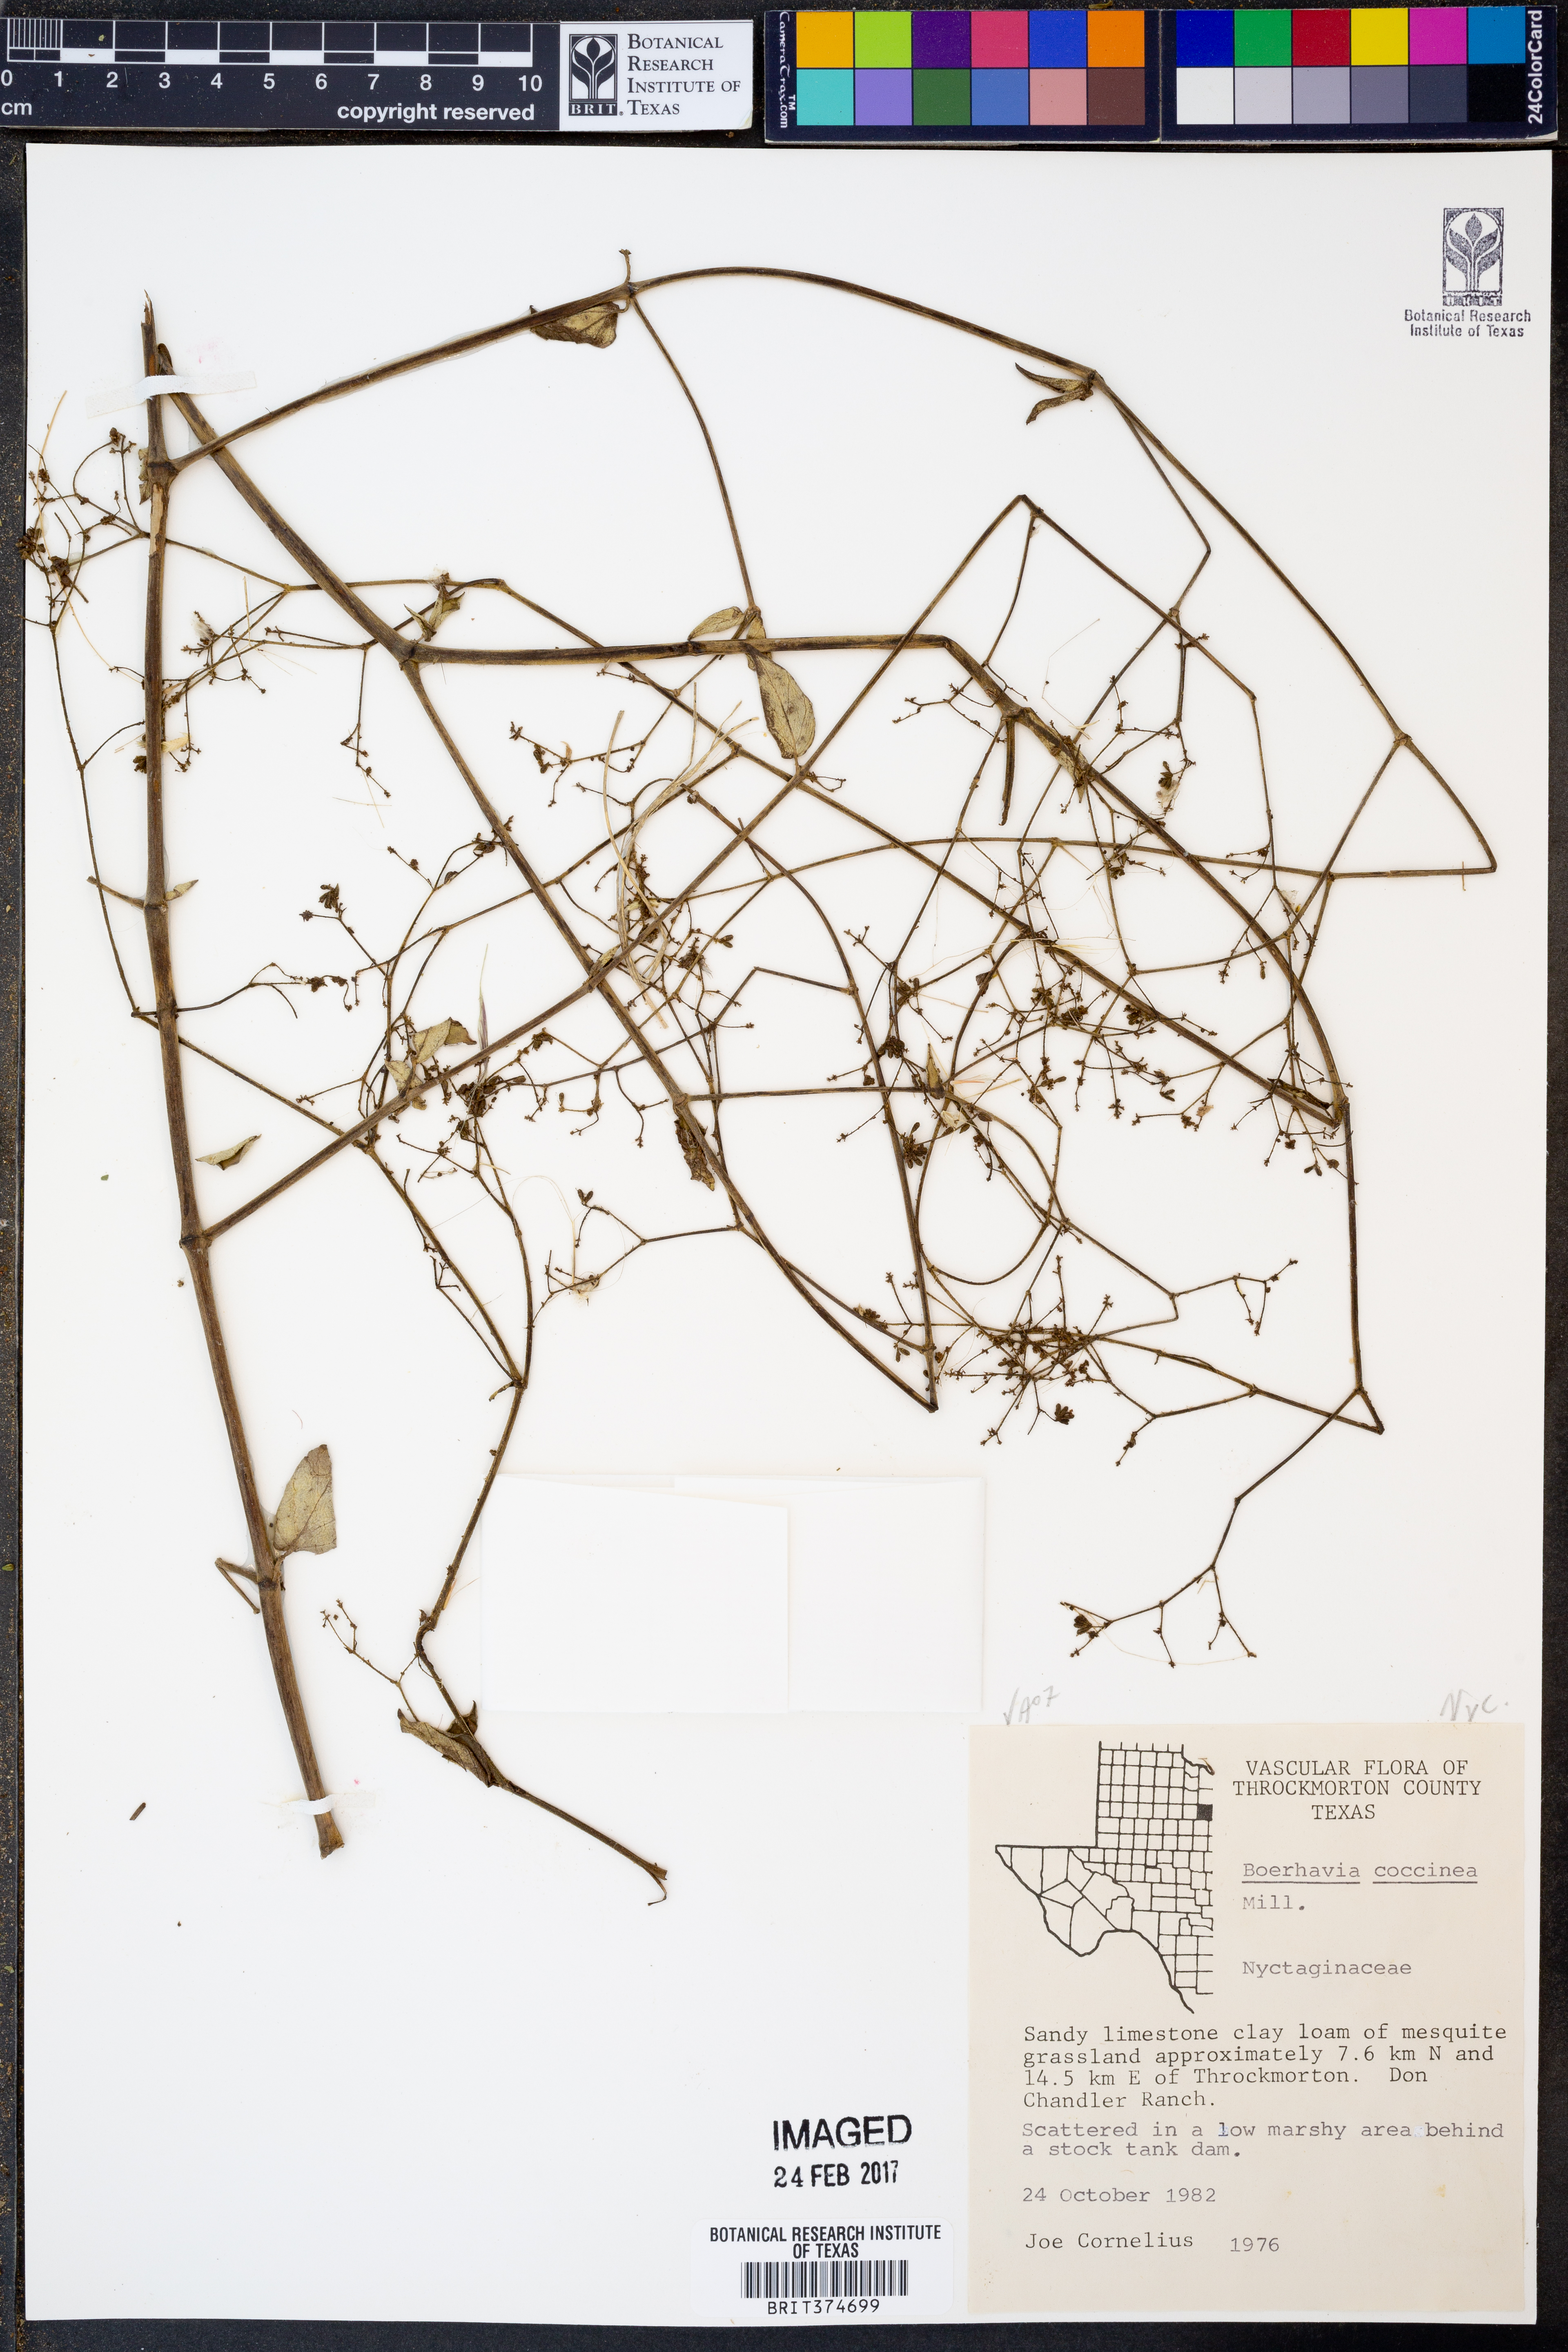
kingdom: Plantae
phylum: Tracheophyta
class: Magnoliopsida
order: Caryophyllales
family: Nyctaginaceae
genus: Boerhavia
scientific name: Boerhavia coccinea
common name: Scarlet spiderling
